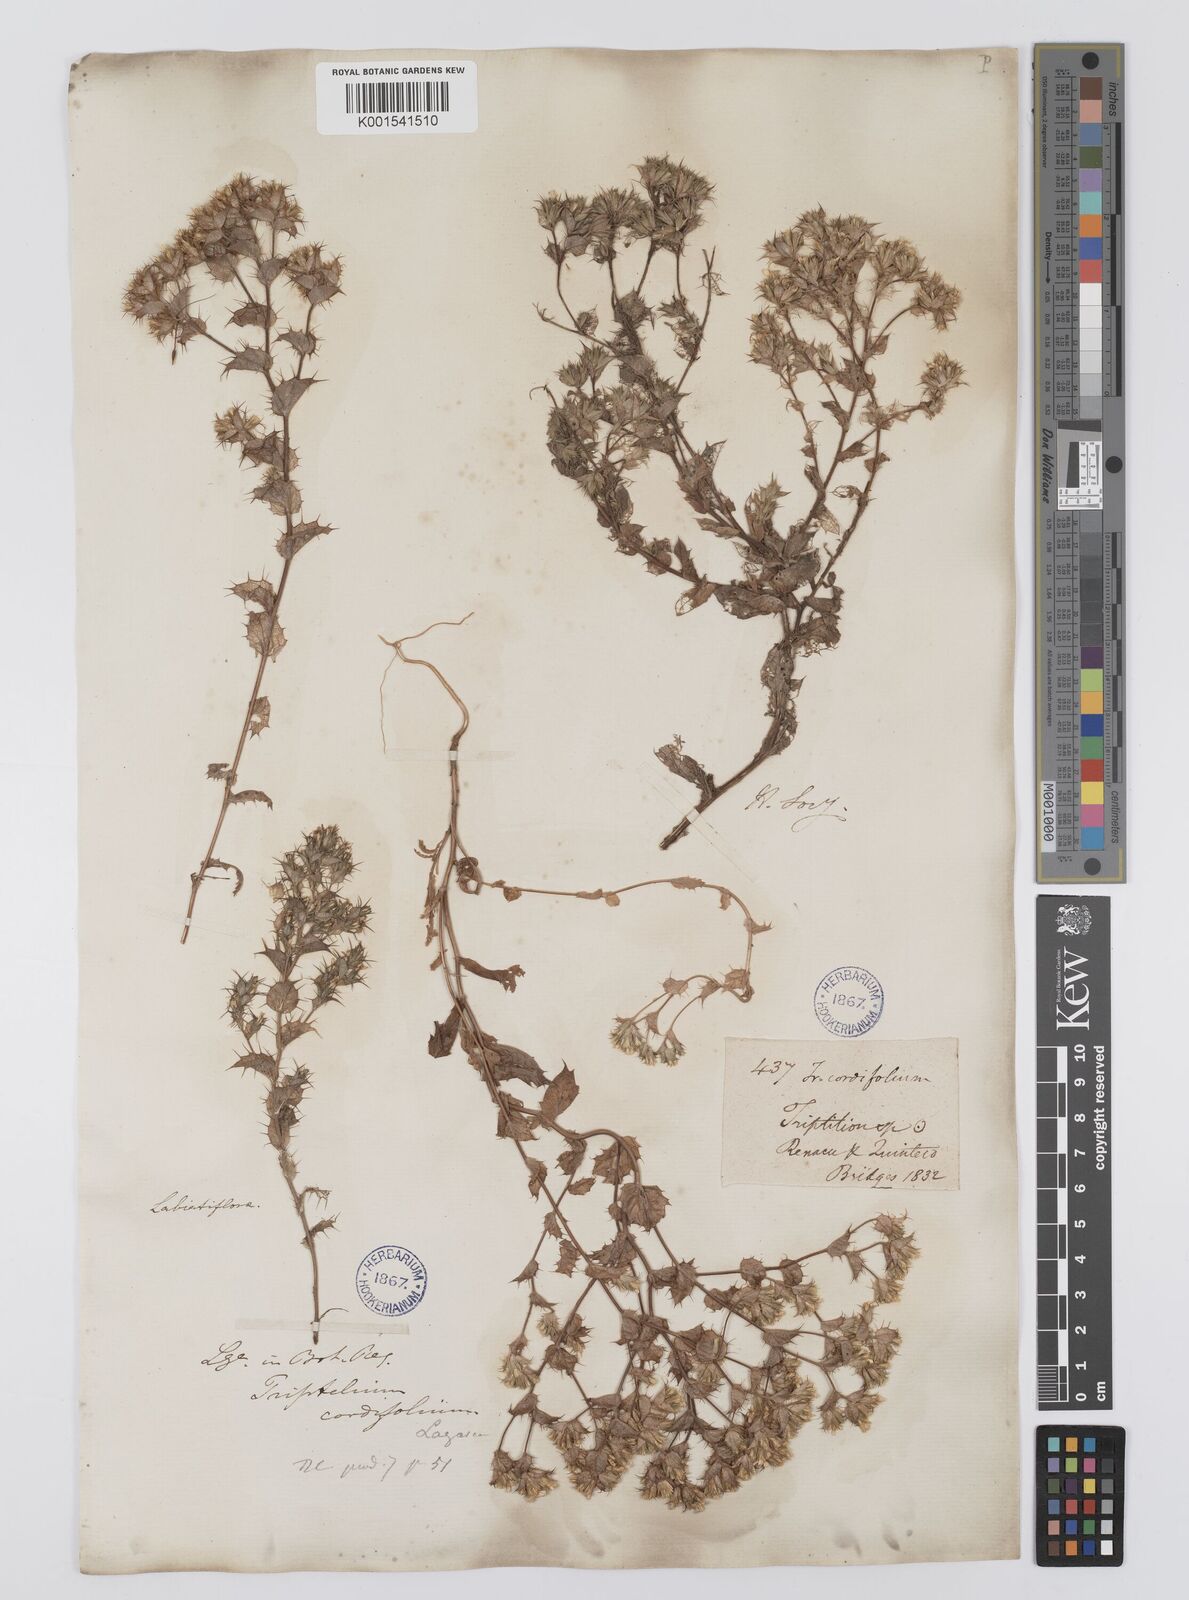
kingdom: Plantae
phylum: Tracheophyta
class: Magnoliopsida
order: Asterales
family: Asteraceae
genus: Triptilion
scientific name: Triptilion cordifolium
